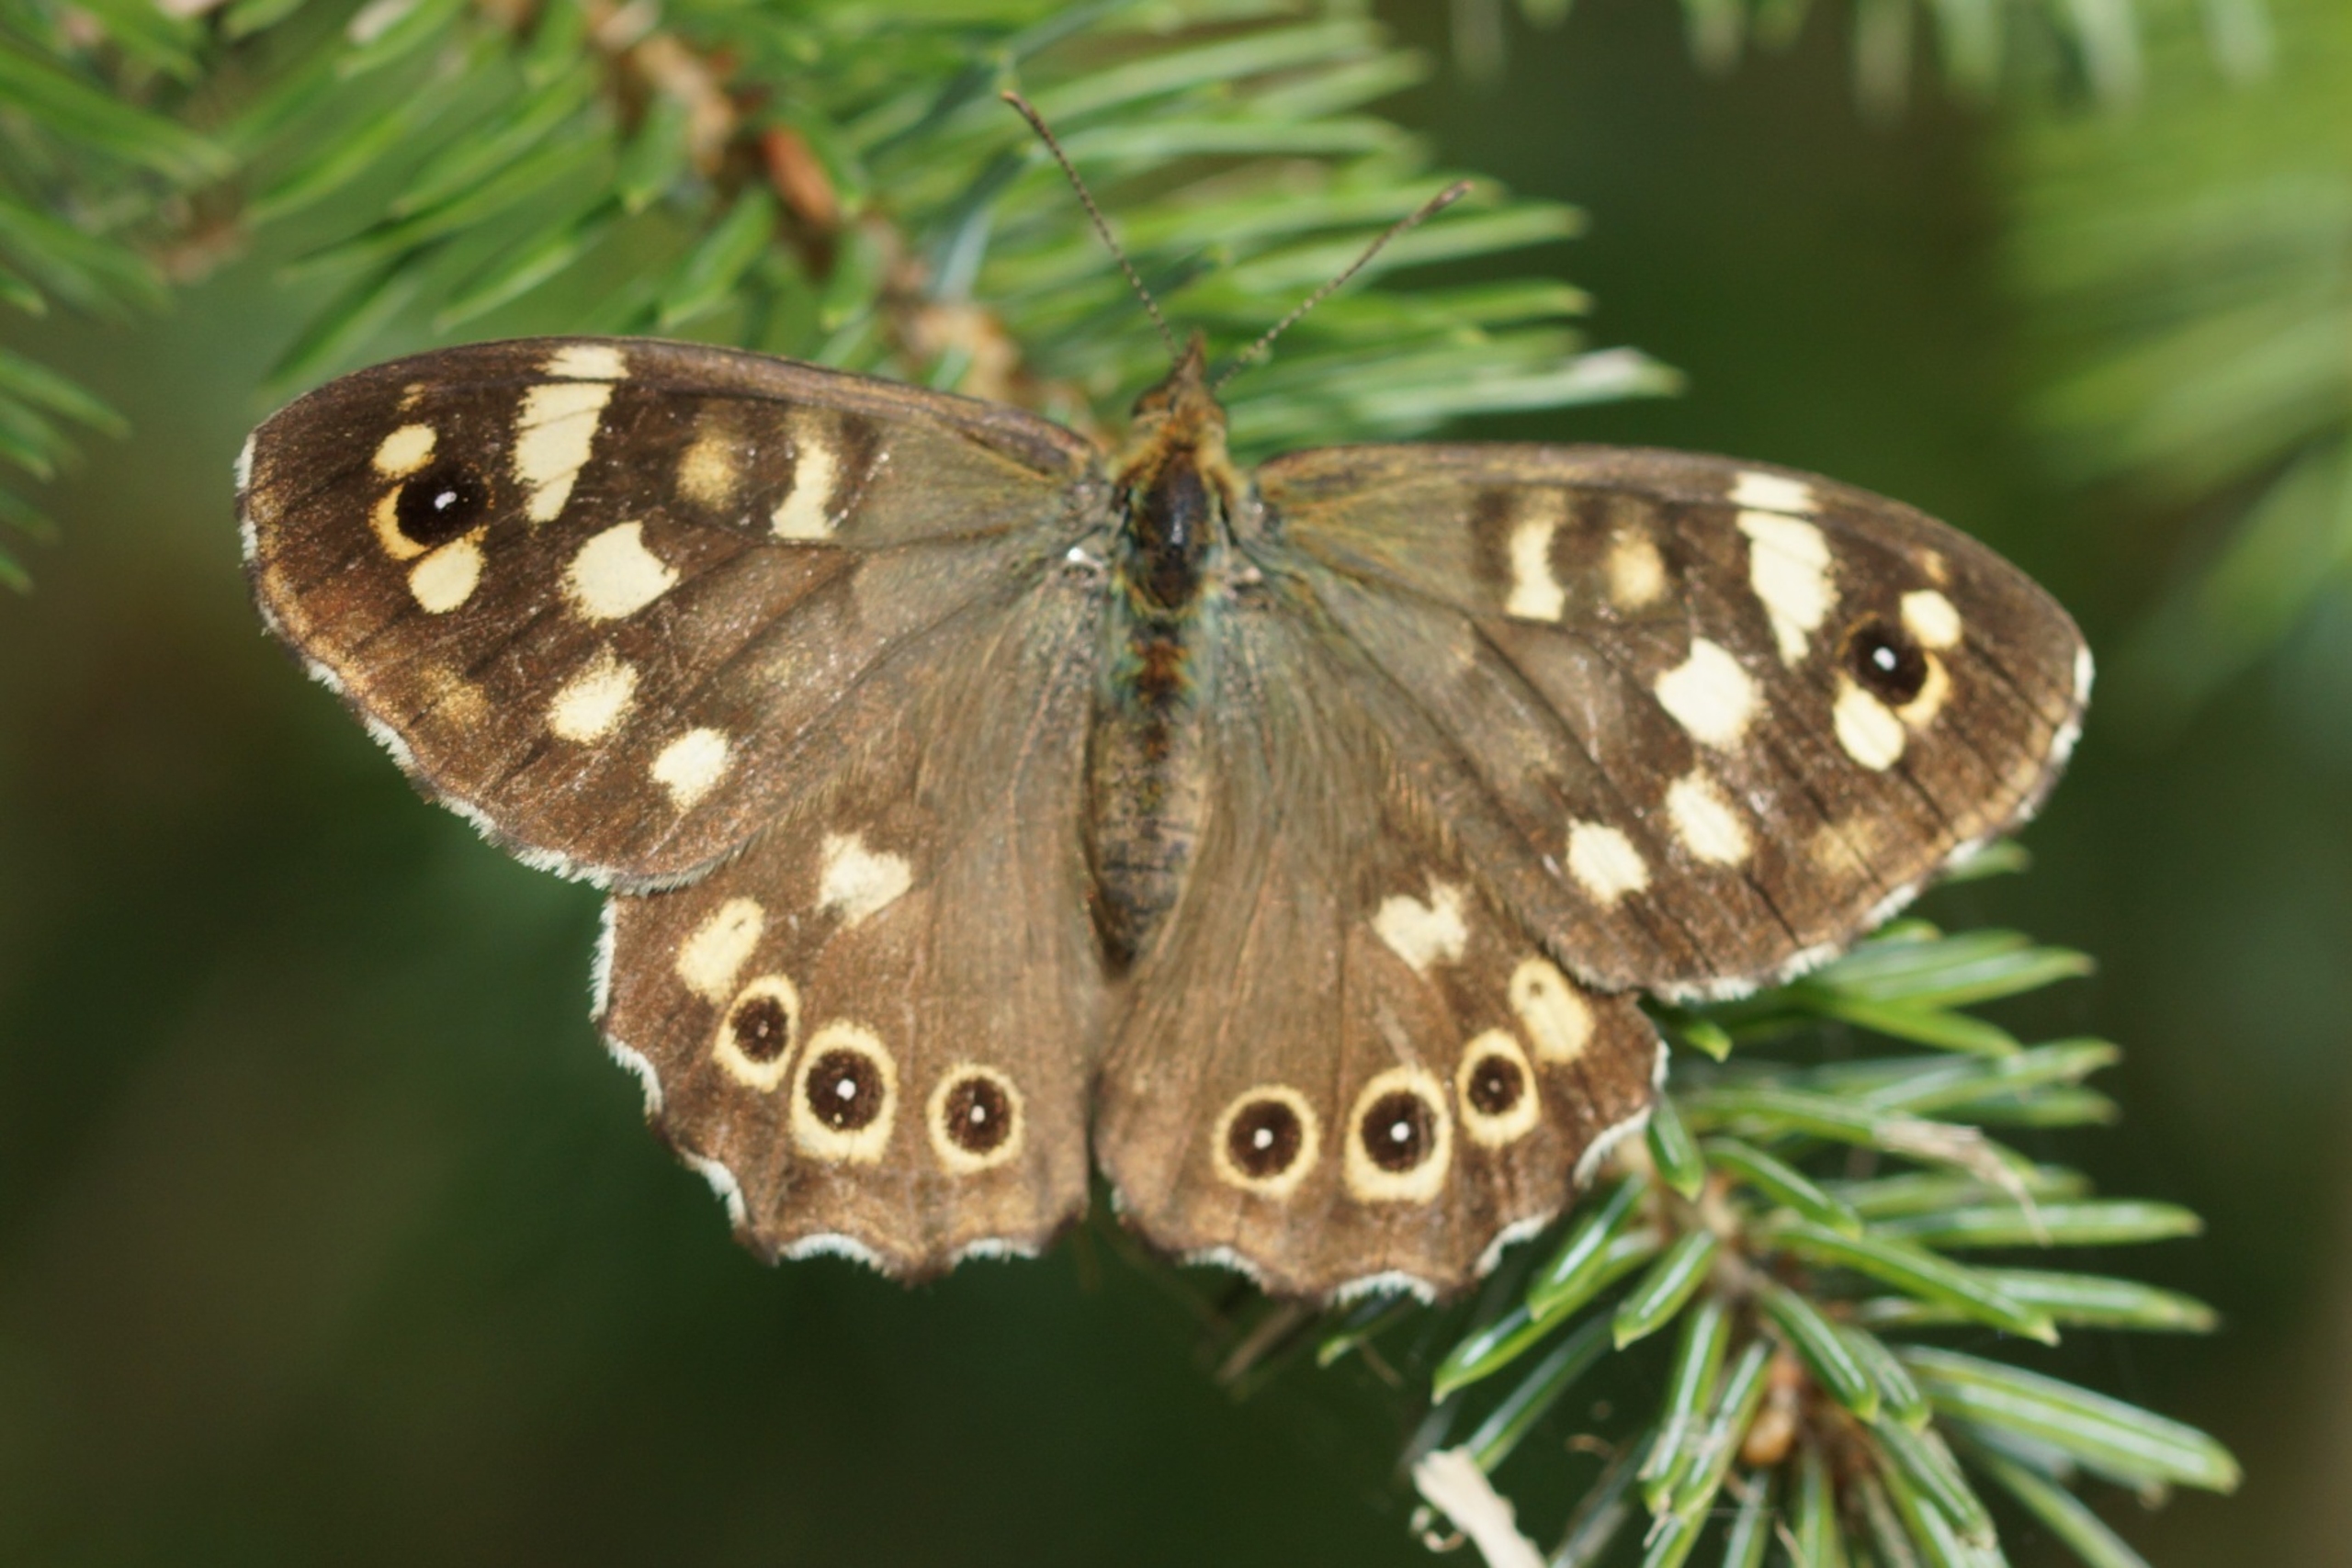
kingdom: Animalia
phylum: Arthropoda
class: Insecta
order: Lepidoptera
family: Nymphalidae
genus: Pararge
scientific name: Pararge aegeria
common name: Skovrandøje
